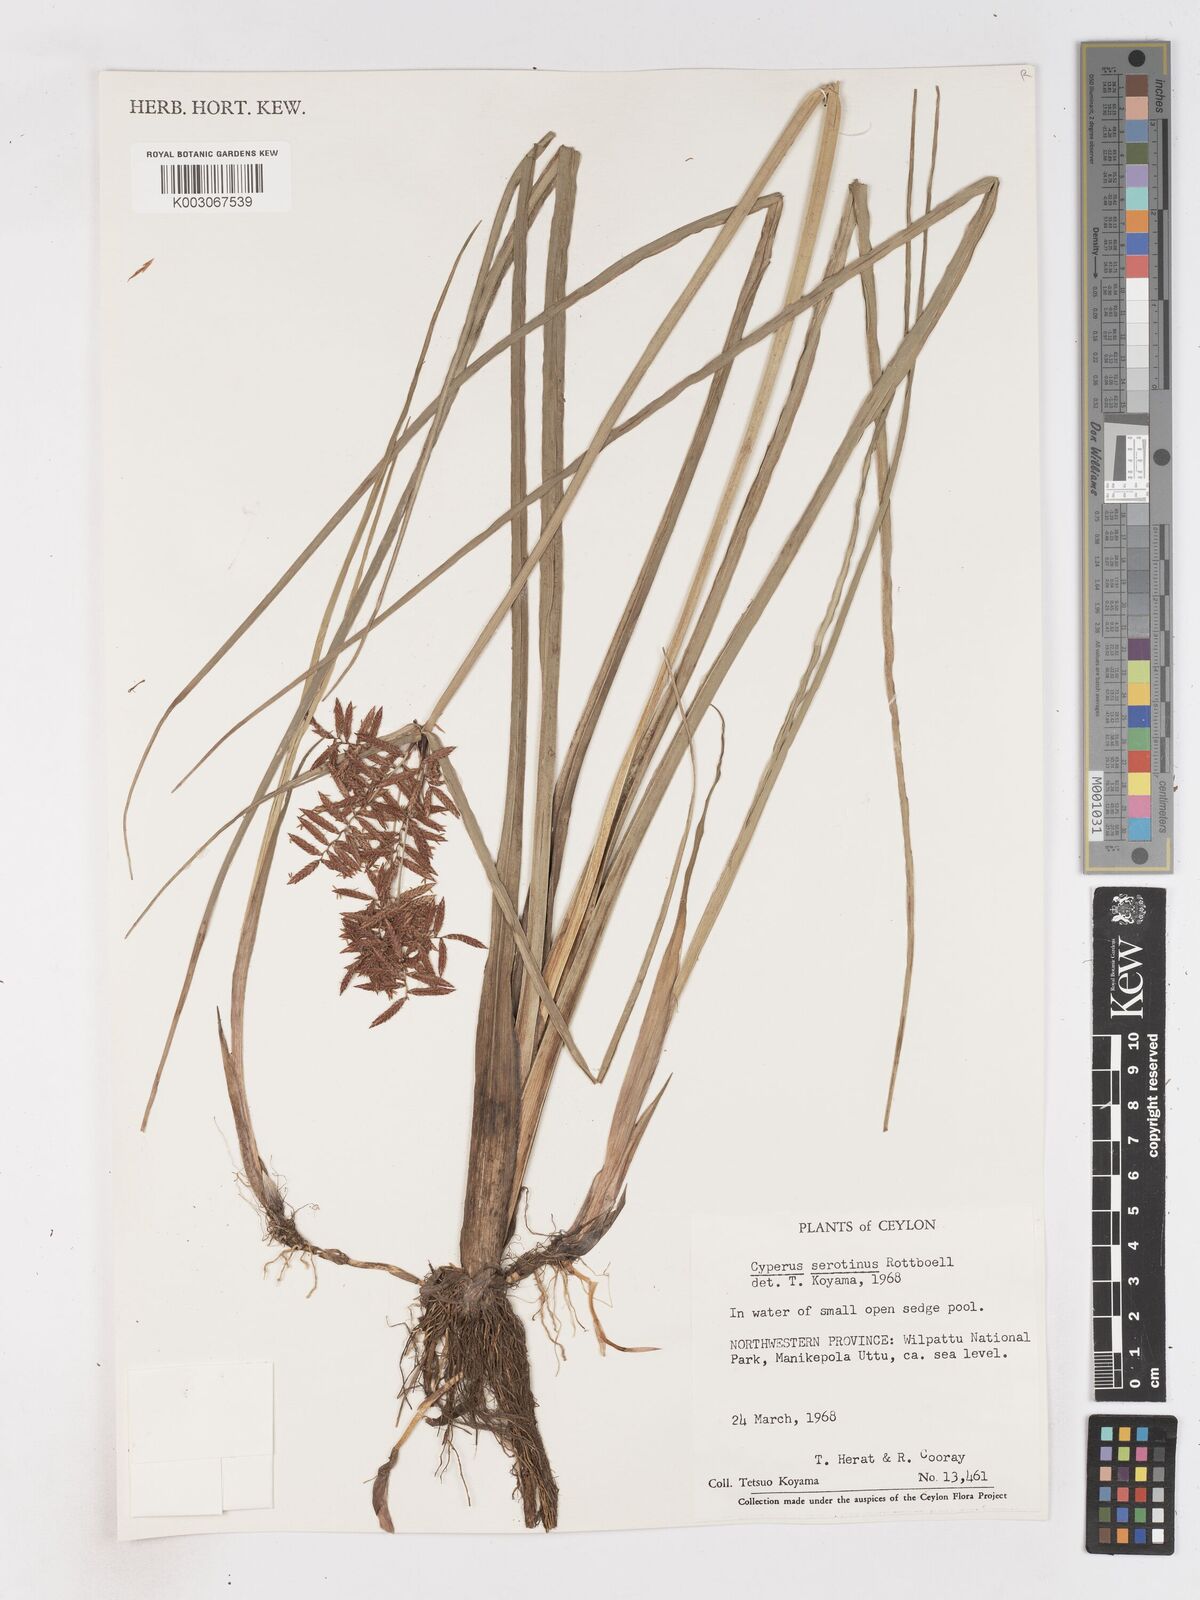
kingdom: Plantae
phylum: Tracheophyta
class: Liliopsida
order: Poales
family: Cyperaceae
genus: Cyperus
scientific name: Cyperus serotinus
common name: Tidalmarsh flatsedge
